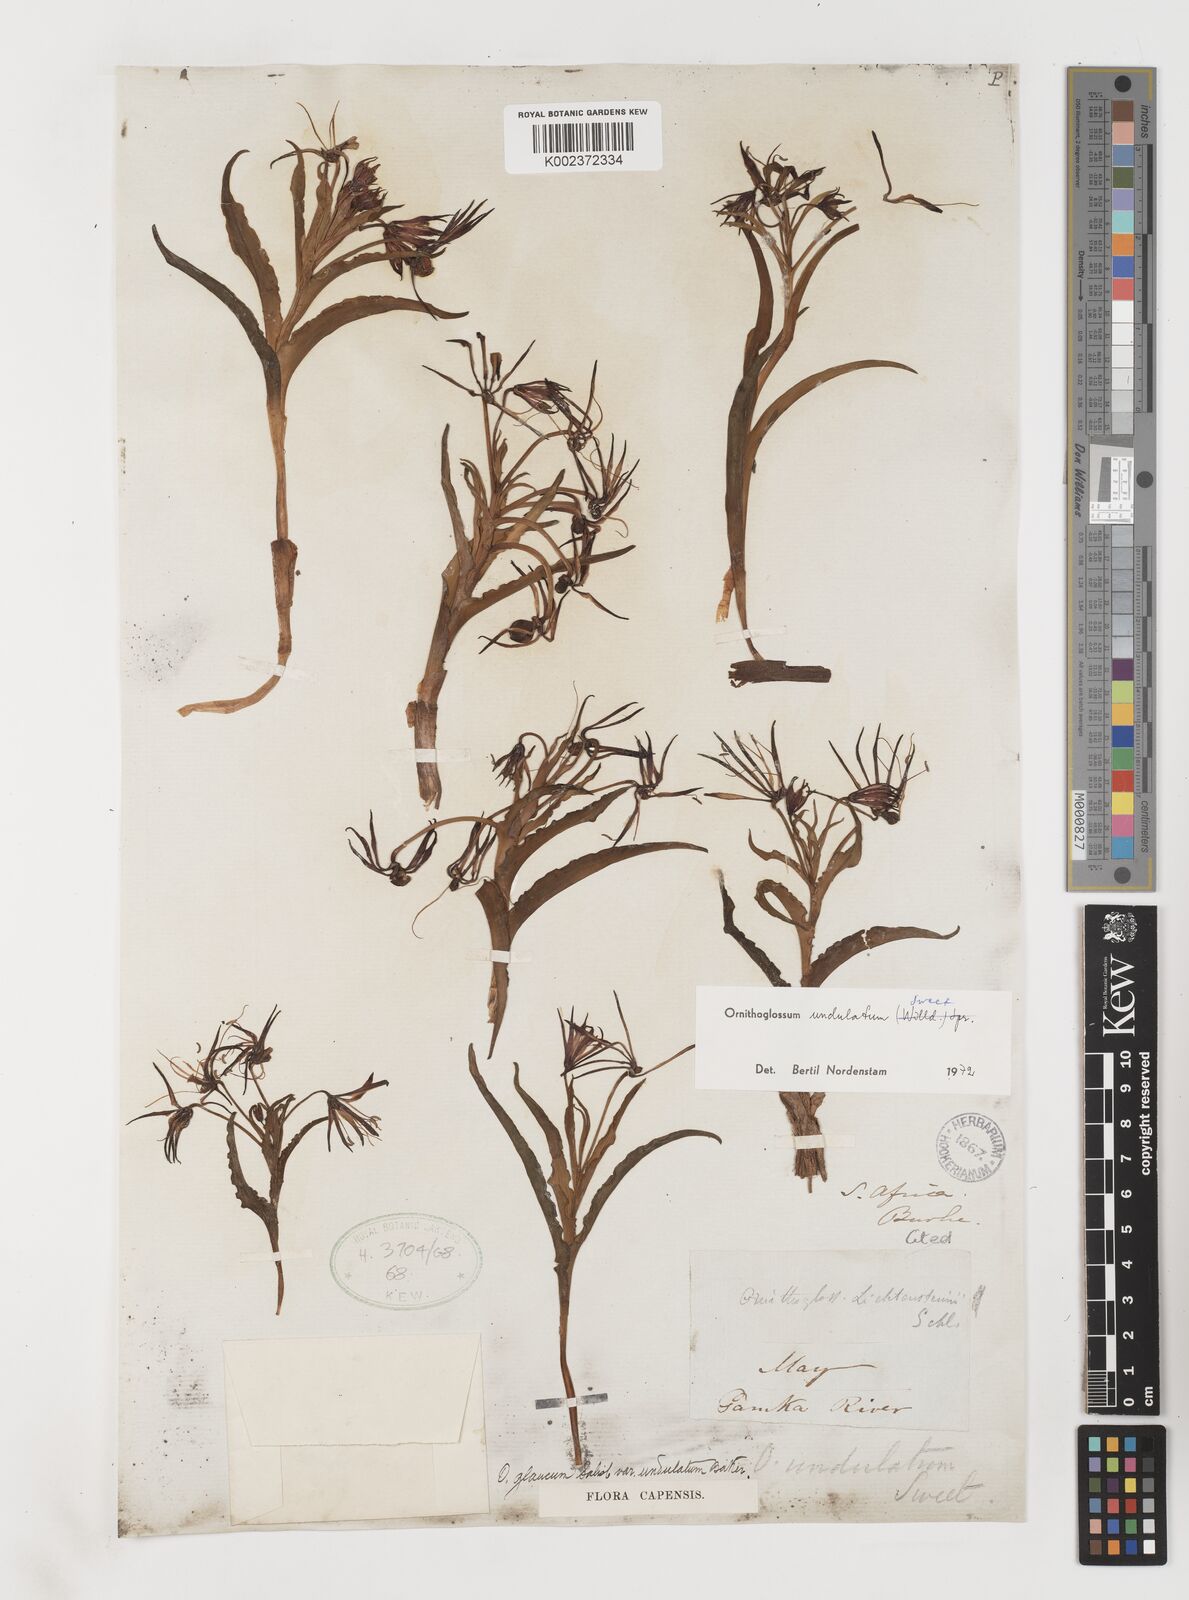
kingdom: Plantae
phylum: Tracheophyta
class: Liliopsida
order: Liliales
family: Colchicaceae
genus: Ornithoglossum
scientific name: Ornithoglossum undulatum
